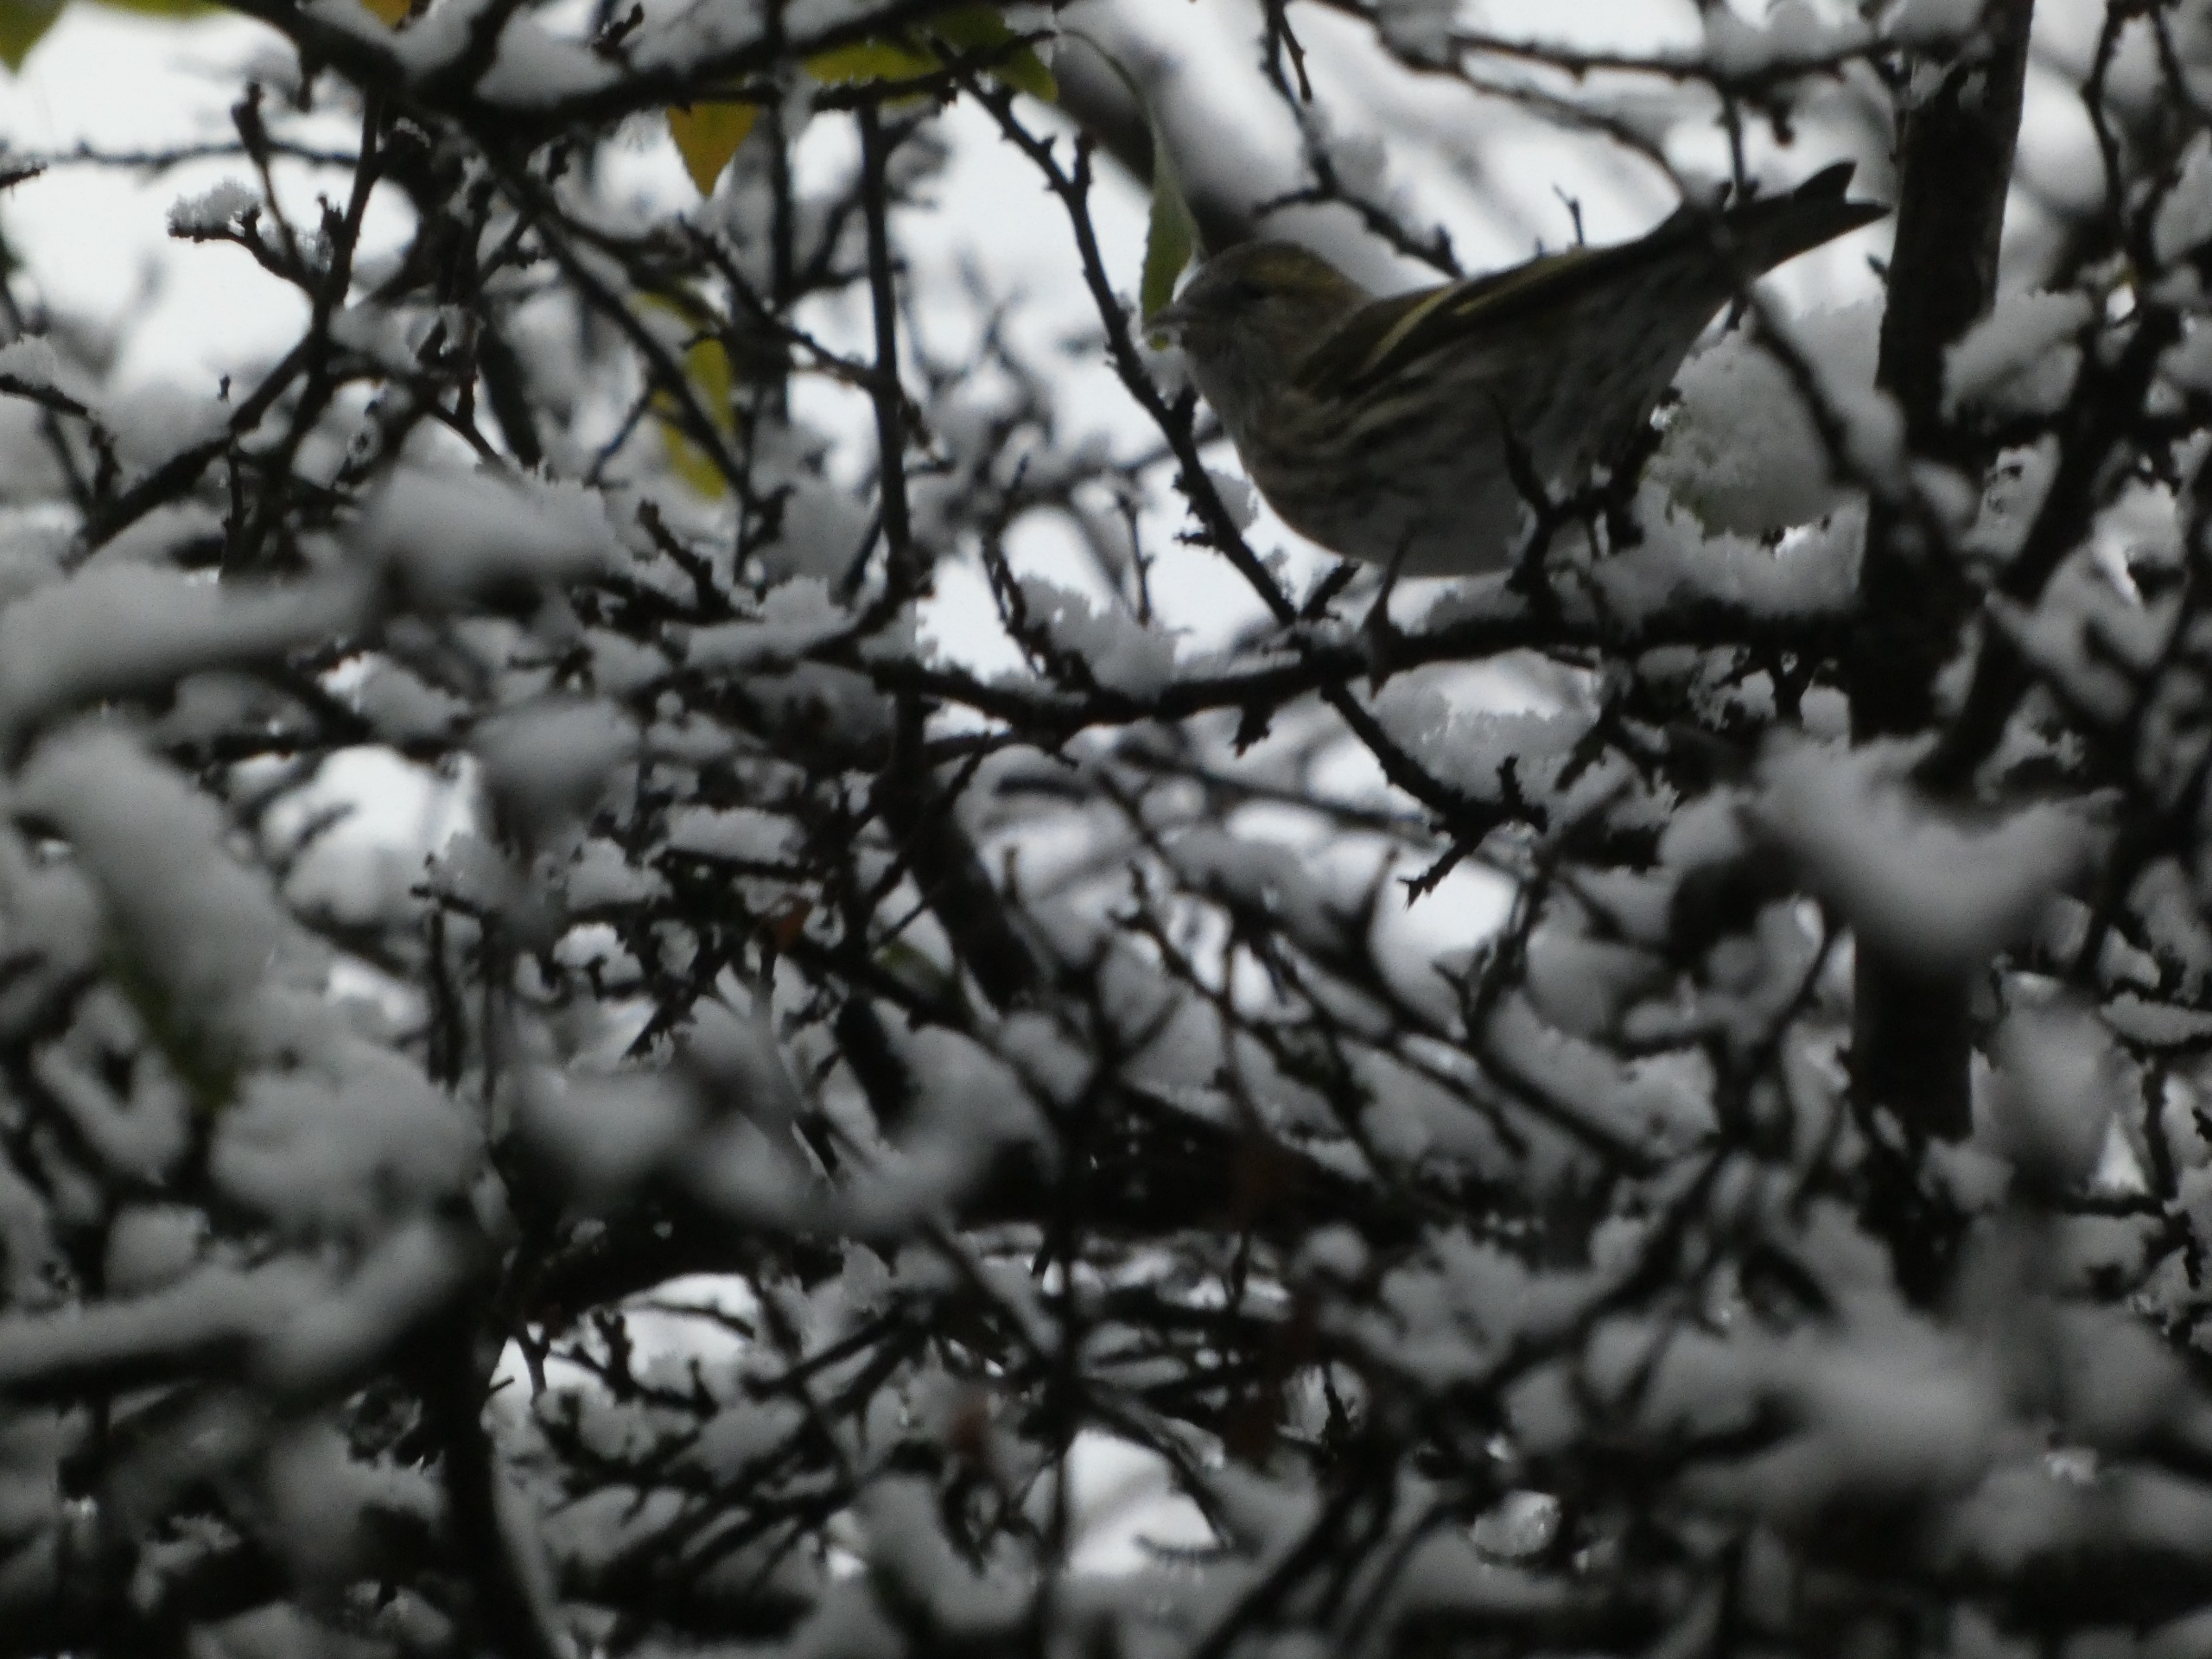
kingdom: Animalia
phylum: Chordata
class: Aves
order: Passeriformes
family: Fringillidae
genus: Spinus
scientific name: Spinus spinus
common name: Grønsisken
